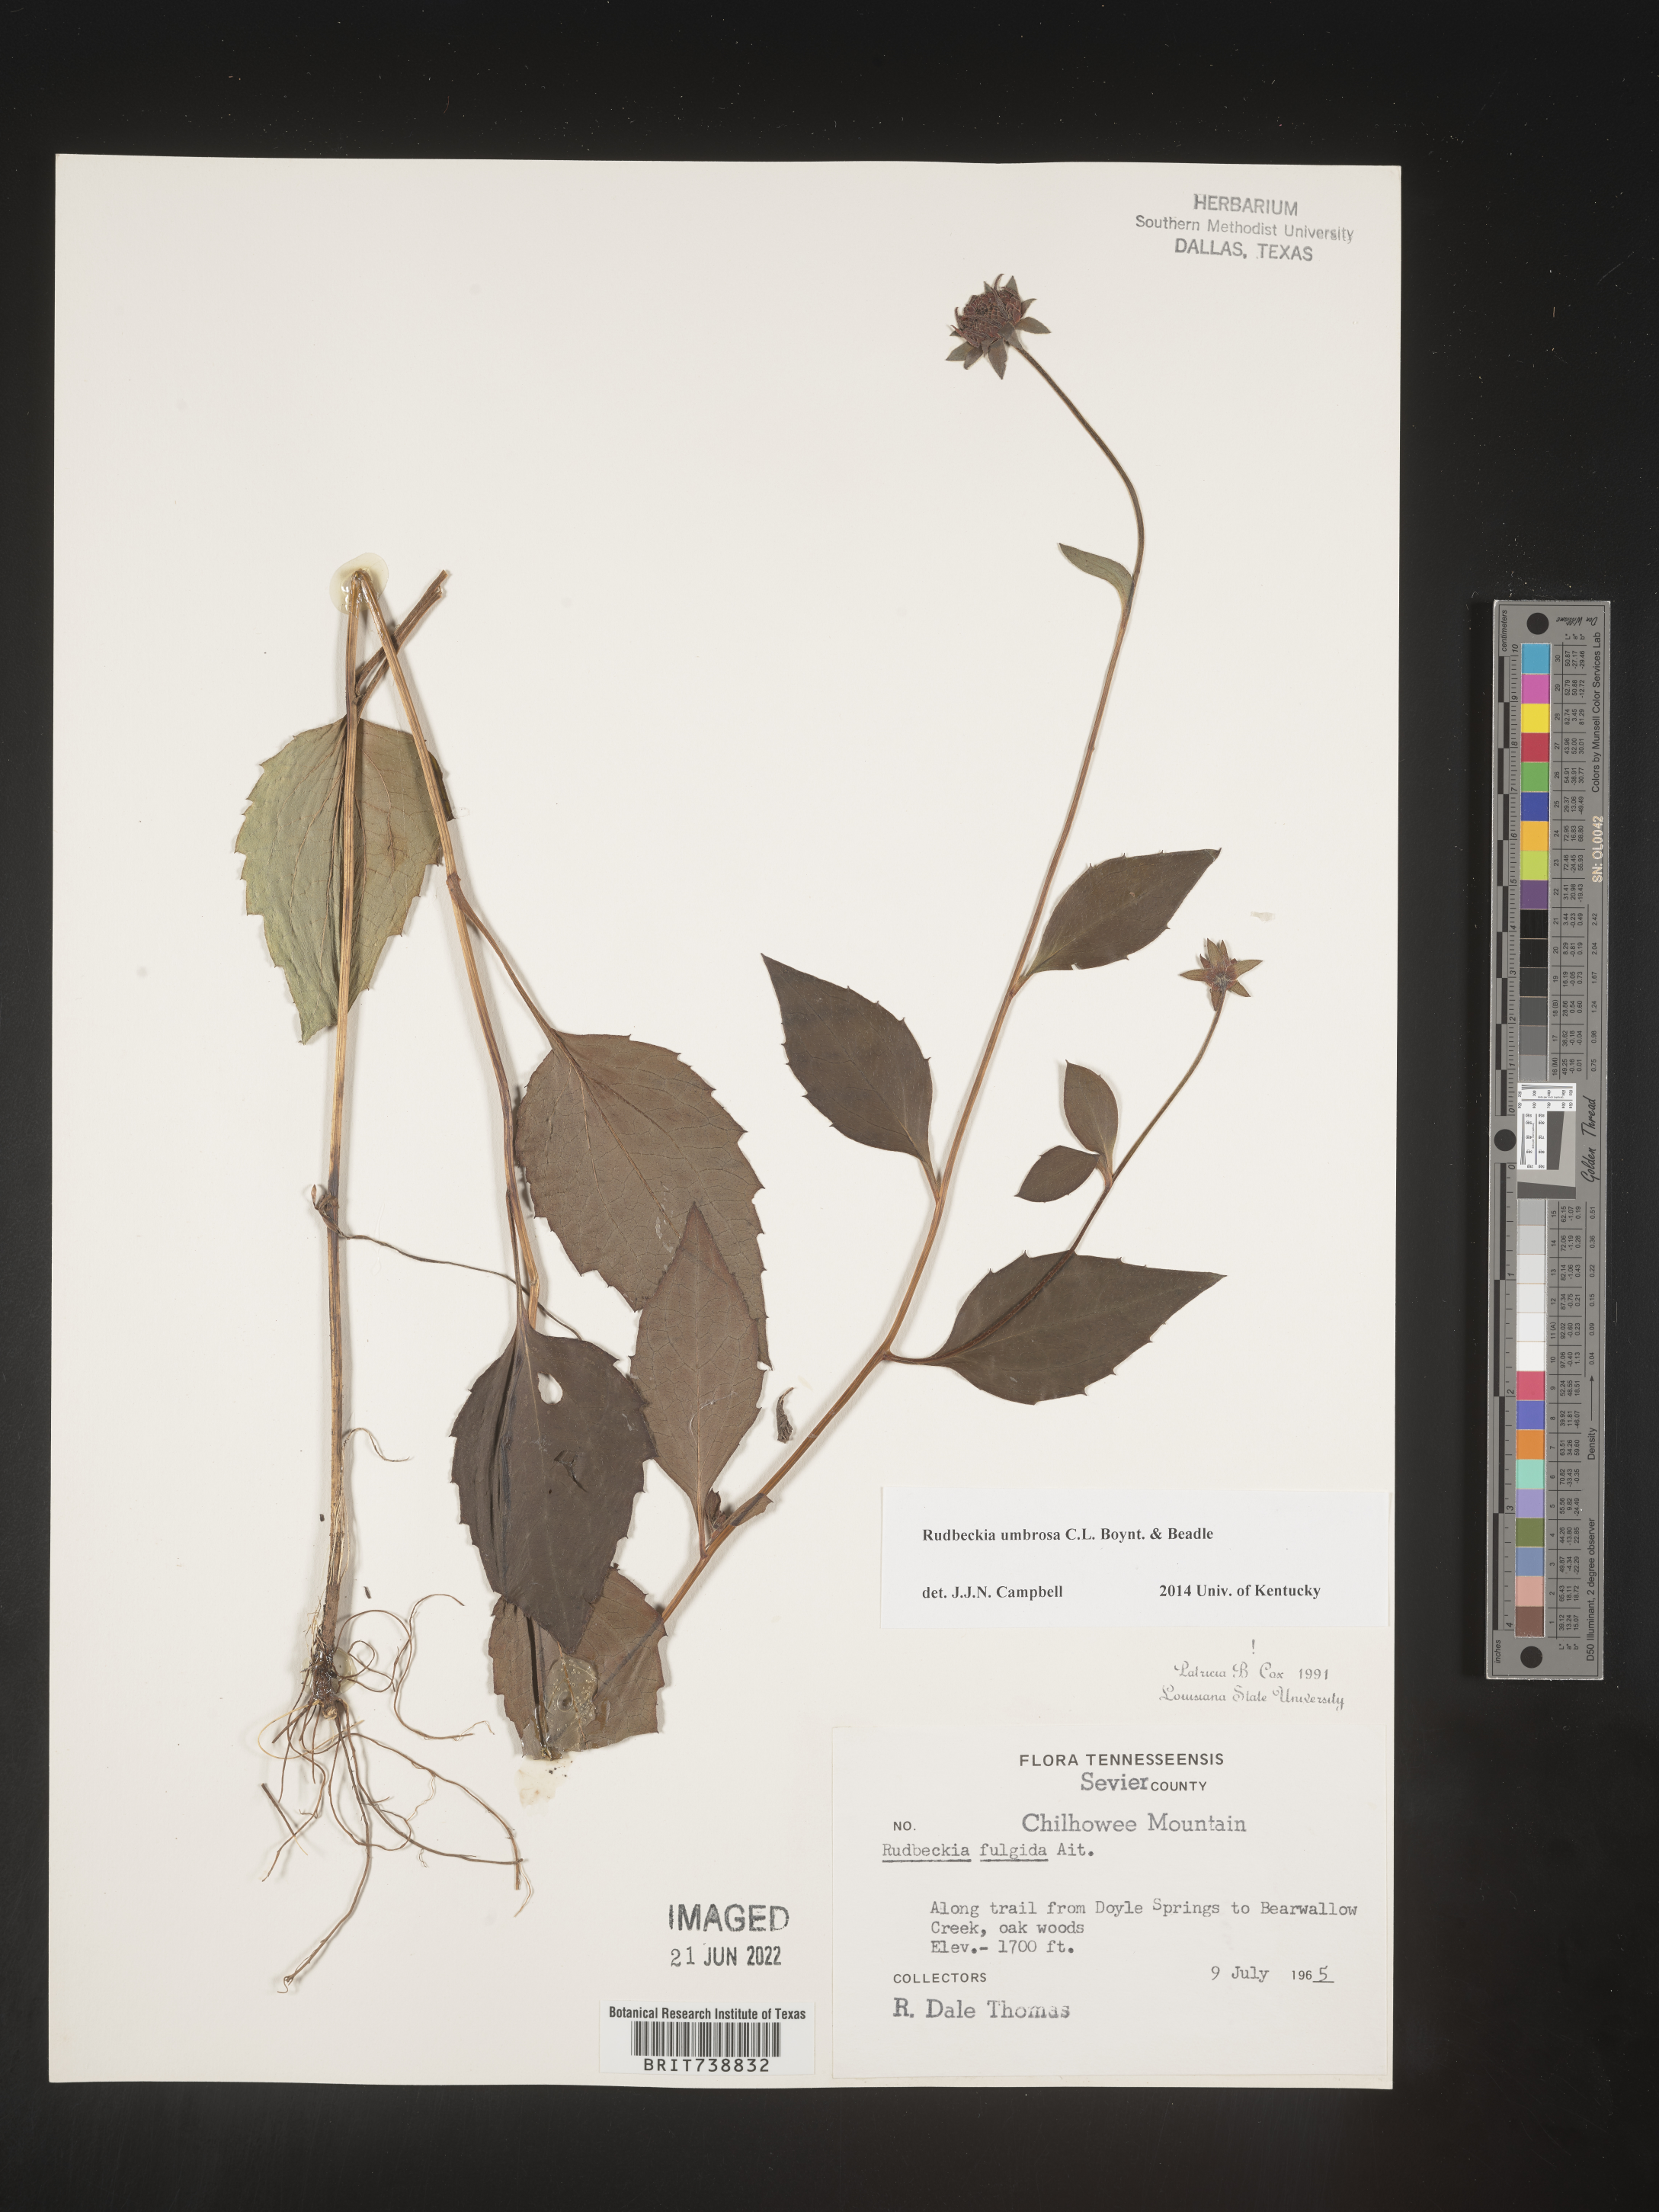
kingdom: Plantae
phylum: Tracheophyta
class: Magnoliopsida
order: Asterales
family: Asteraceae
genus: Rudbeckia
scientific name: Rudbeckia fulgida
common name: Perennial coneflower
